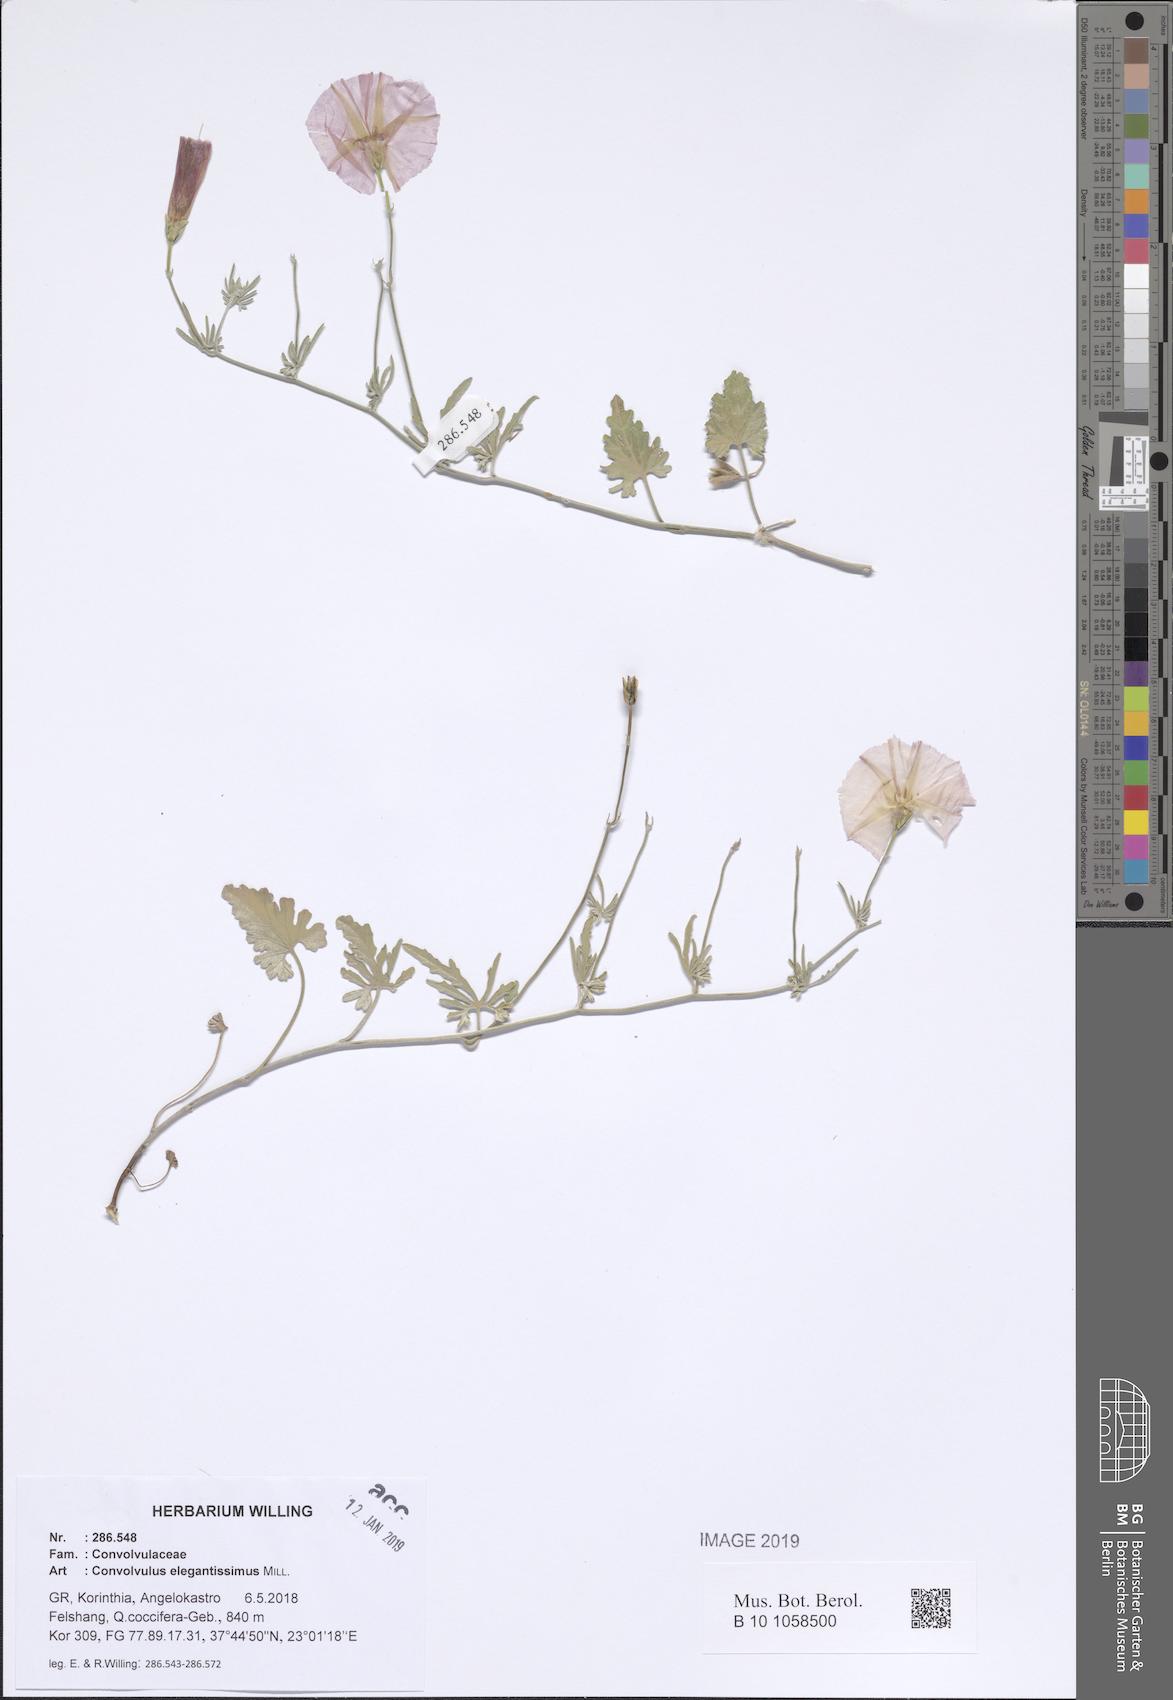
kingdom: Plantae
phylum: Tracheophyta
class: Magnoliopsida
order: Solanales
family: Convolvulaceae
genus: Convolvulus
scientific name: Convolvulus elegantissimus
